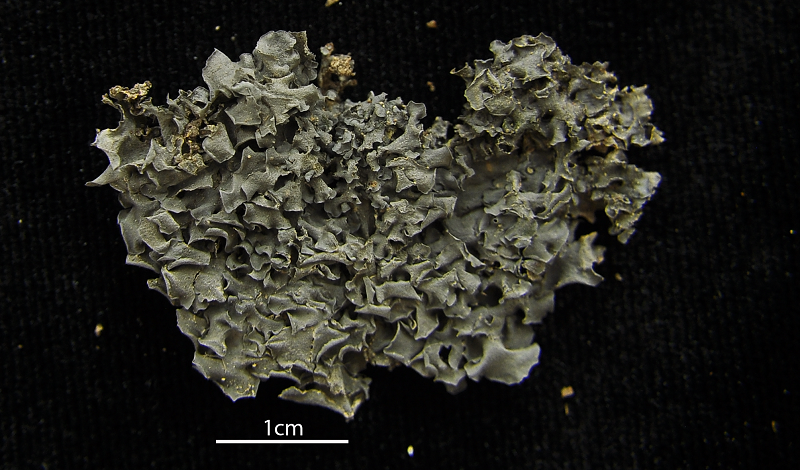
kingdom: Fungi
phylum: Ascomycota
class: Lecanoromycetes
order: Peltigerales
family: Collemataceae
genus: Leptogium
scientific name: Leptogium ulvaceum
